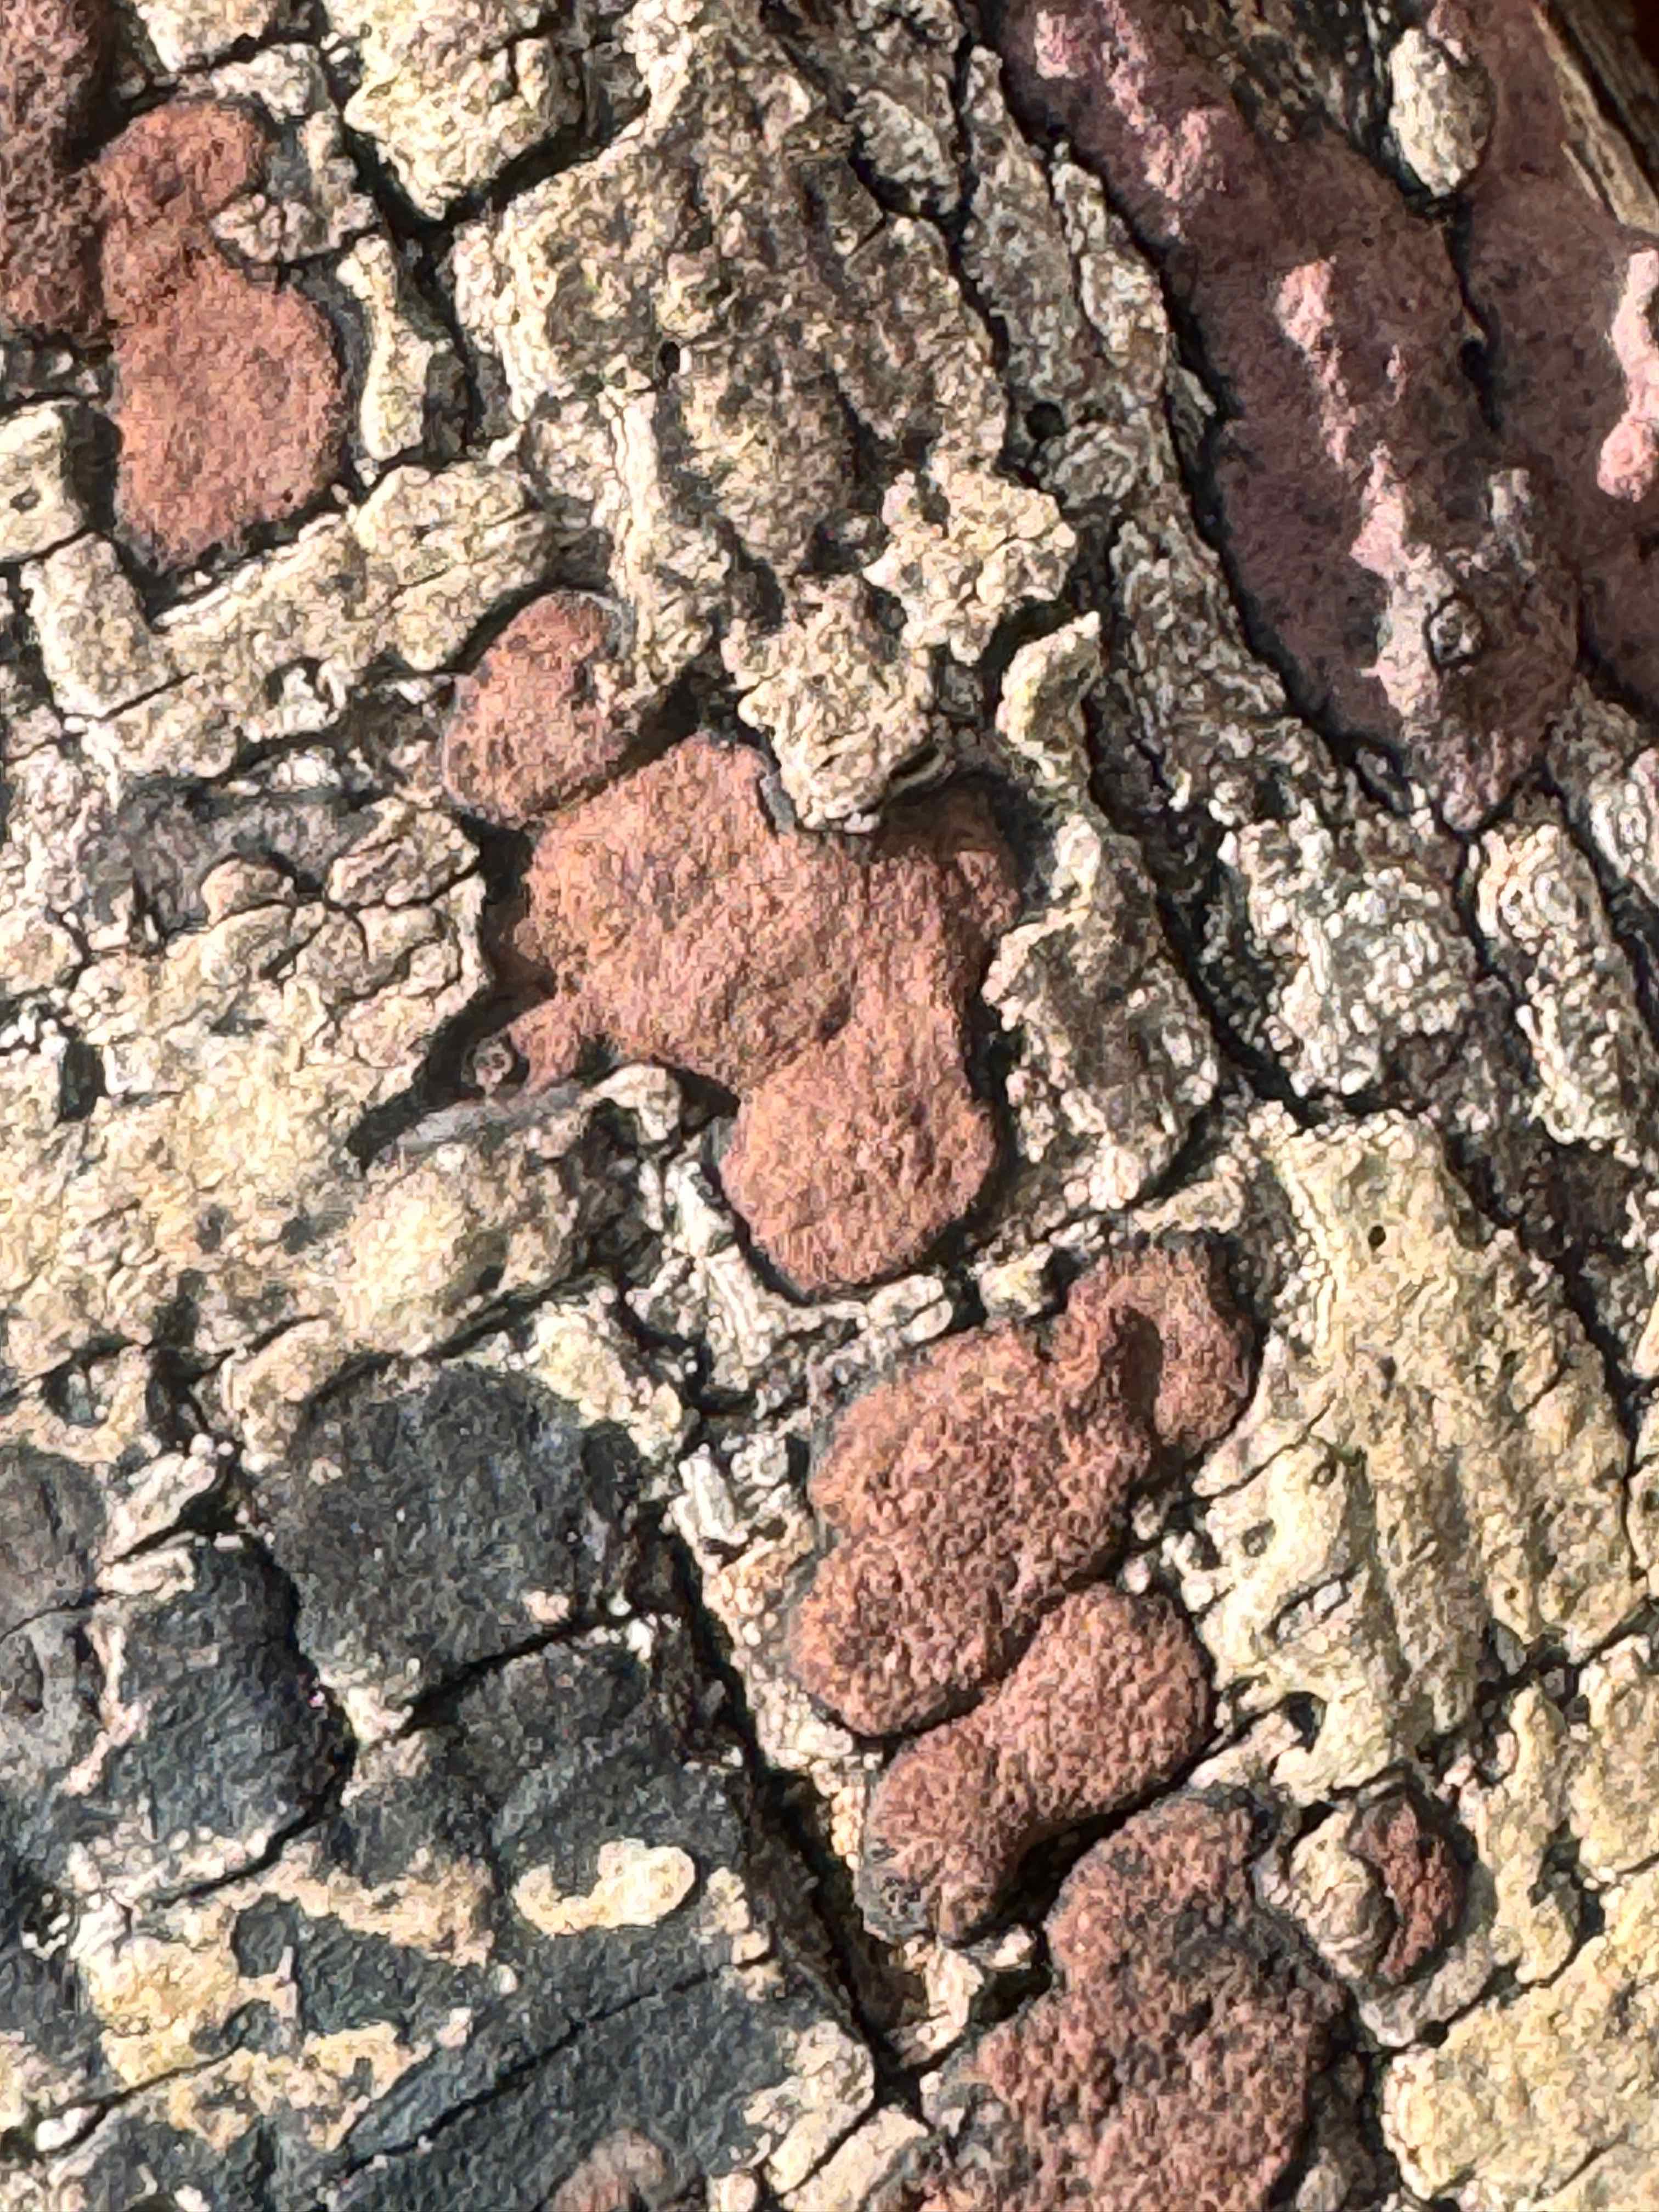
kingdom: Fungi
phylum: Ascomycota
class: Sordariomycetes
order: Xylariales
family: Hypoxylaceae
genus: Hypoxylon
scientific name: Hypoxylon petriniae
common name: nedsænket kulbær
